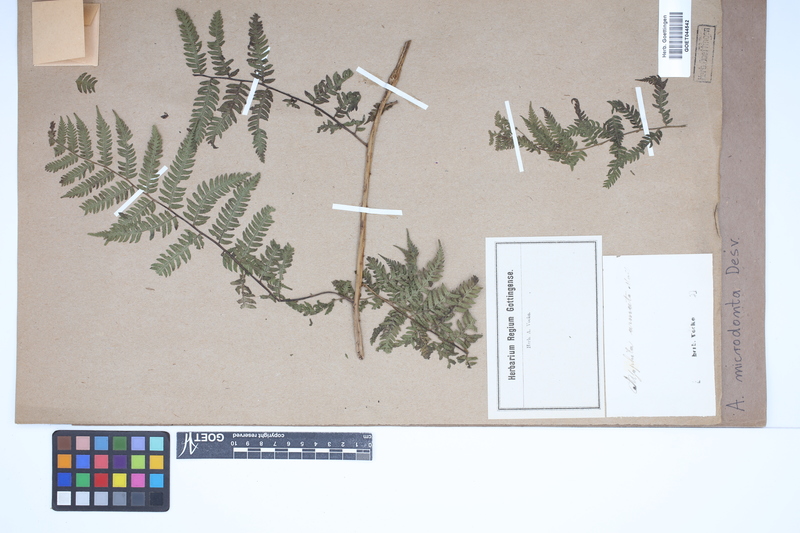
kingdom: Plantae
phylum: Tracheophyta
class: Polypodiopsida
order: Cyatheales
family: Cyatheaceae
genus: Cyathea
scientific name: Cyathea microdonta
